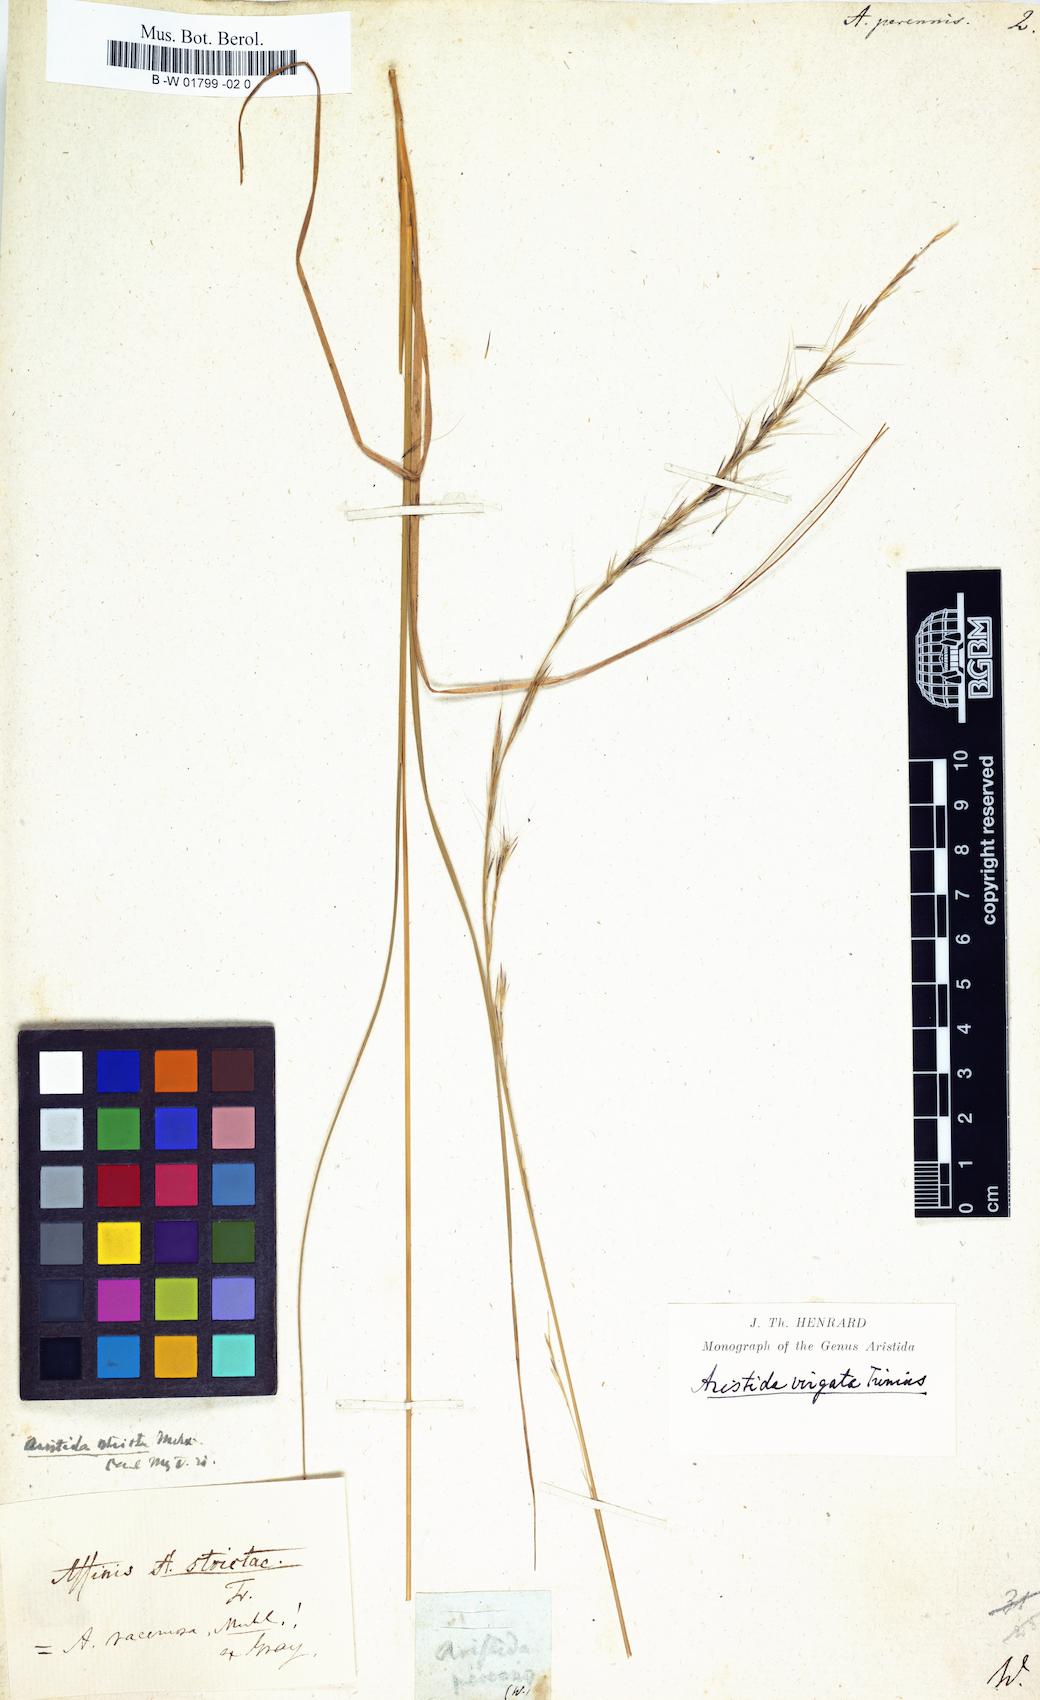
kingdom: Plantae
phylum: Tracheophyta
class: Liliopsida
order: Poales
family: Poaceae
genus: Aristida
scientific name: Aristida virgata
